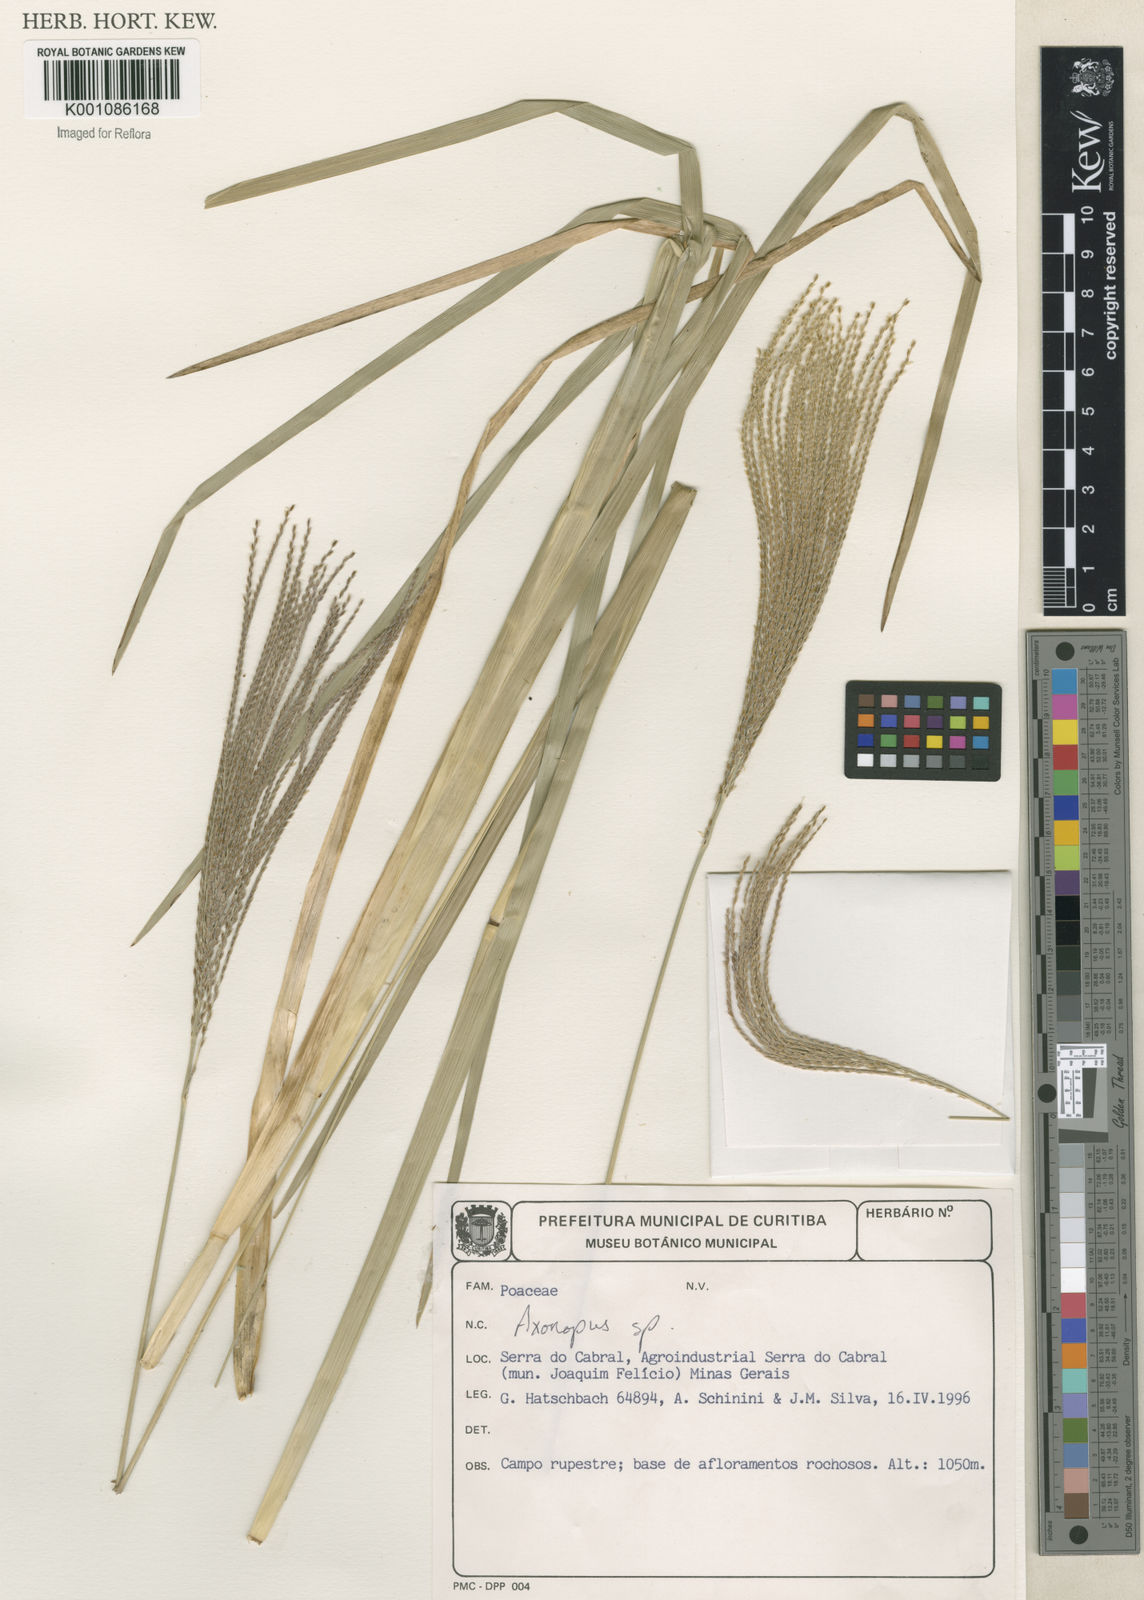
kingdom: Plantae
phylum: Tracheophyta
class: Liliopsida
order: Poales
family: Poaceae
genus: Axonopus
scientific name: Axonopus
